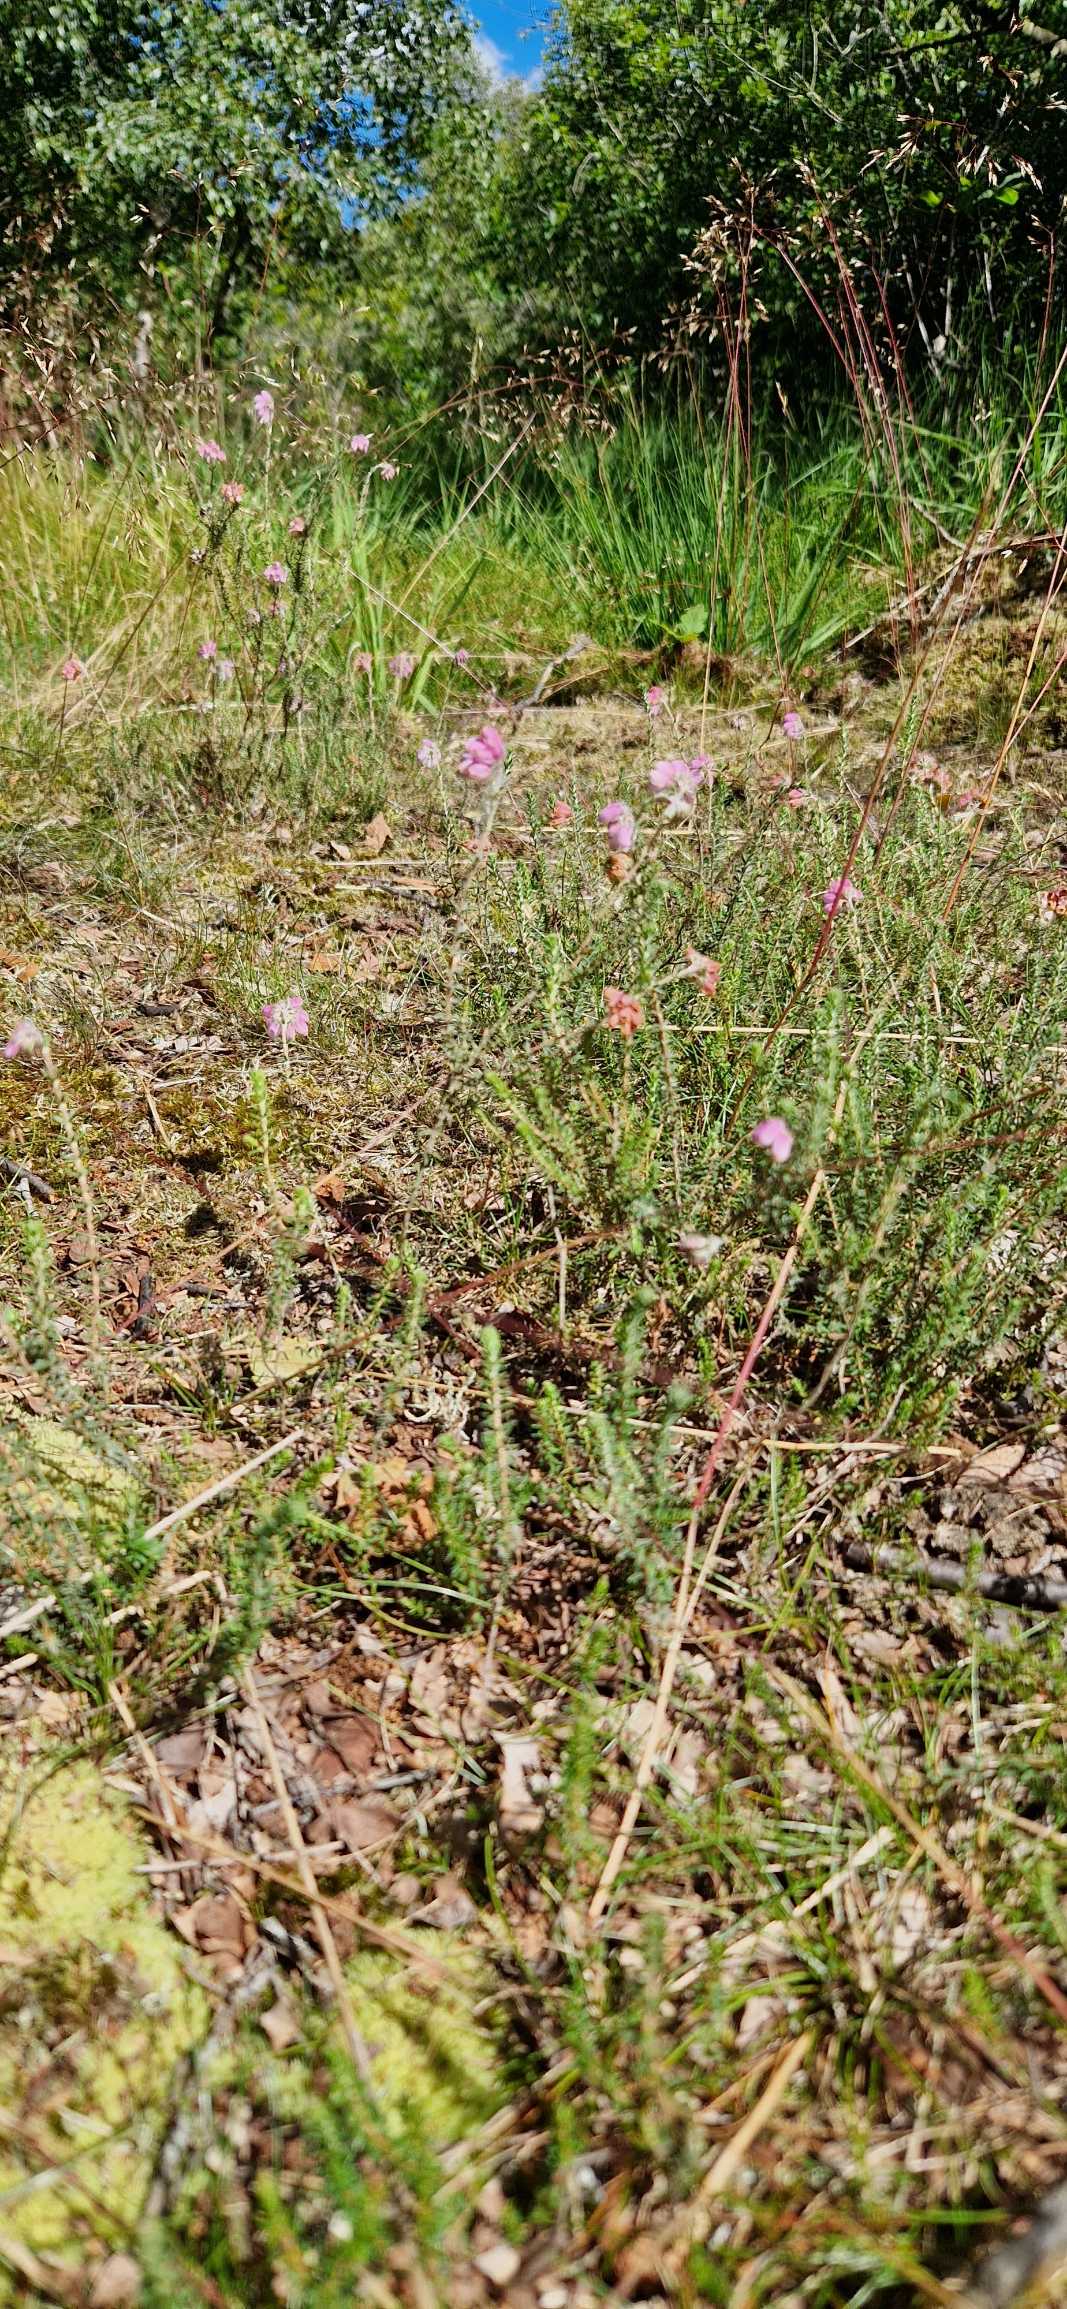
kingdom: Plantae
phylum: Tracheophyta
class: Magnoliopsida
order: Ericales
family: Ericaceae
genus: Erica
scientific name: Erica tetralix
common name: Klokkelyng
